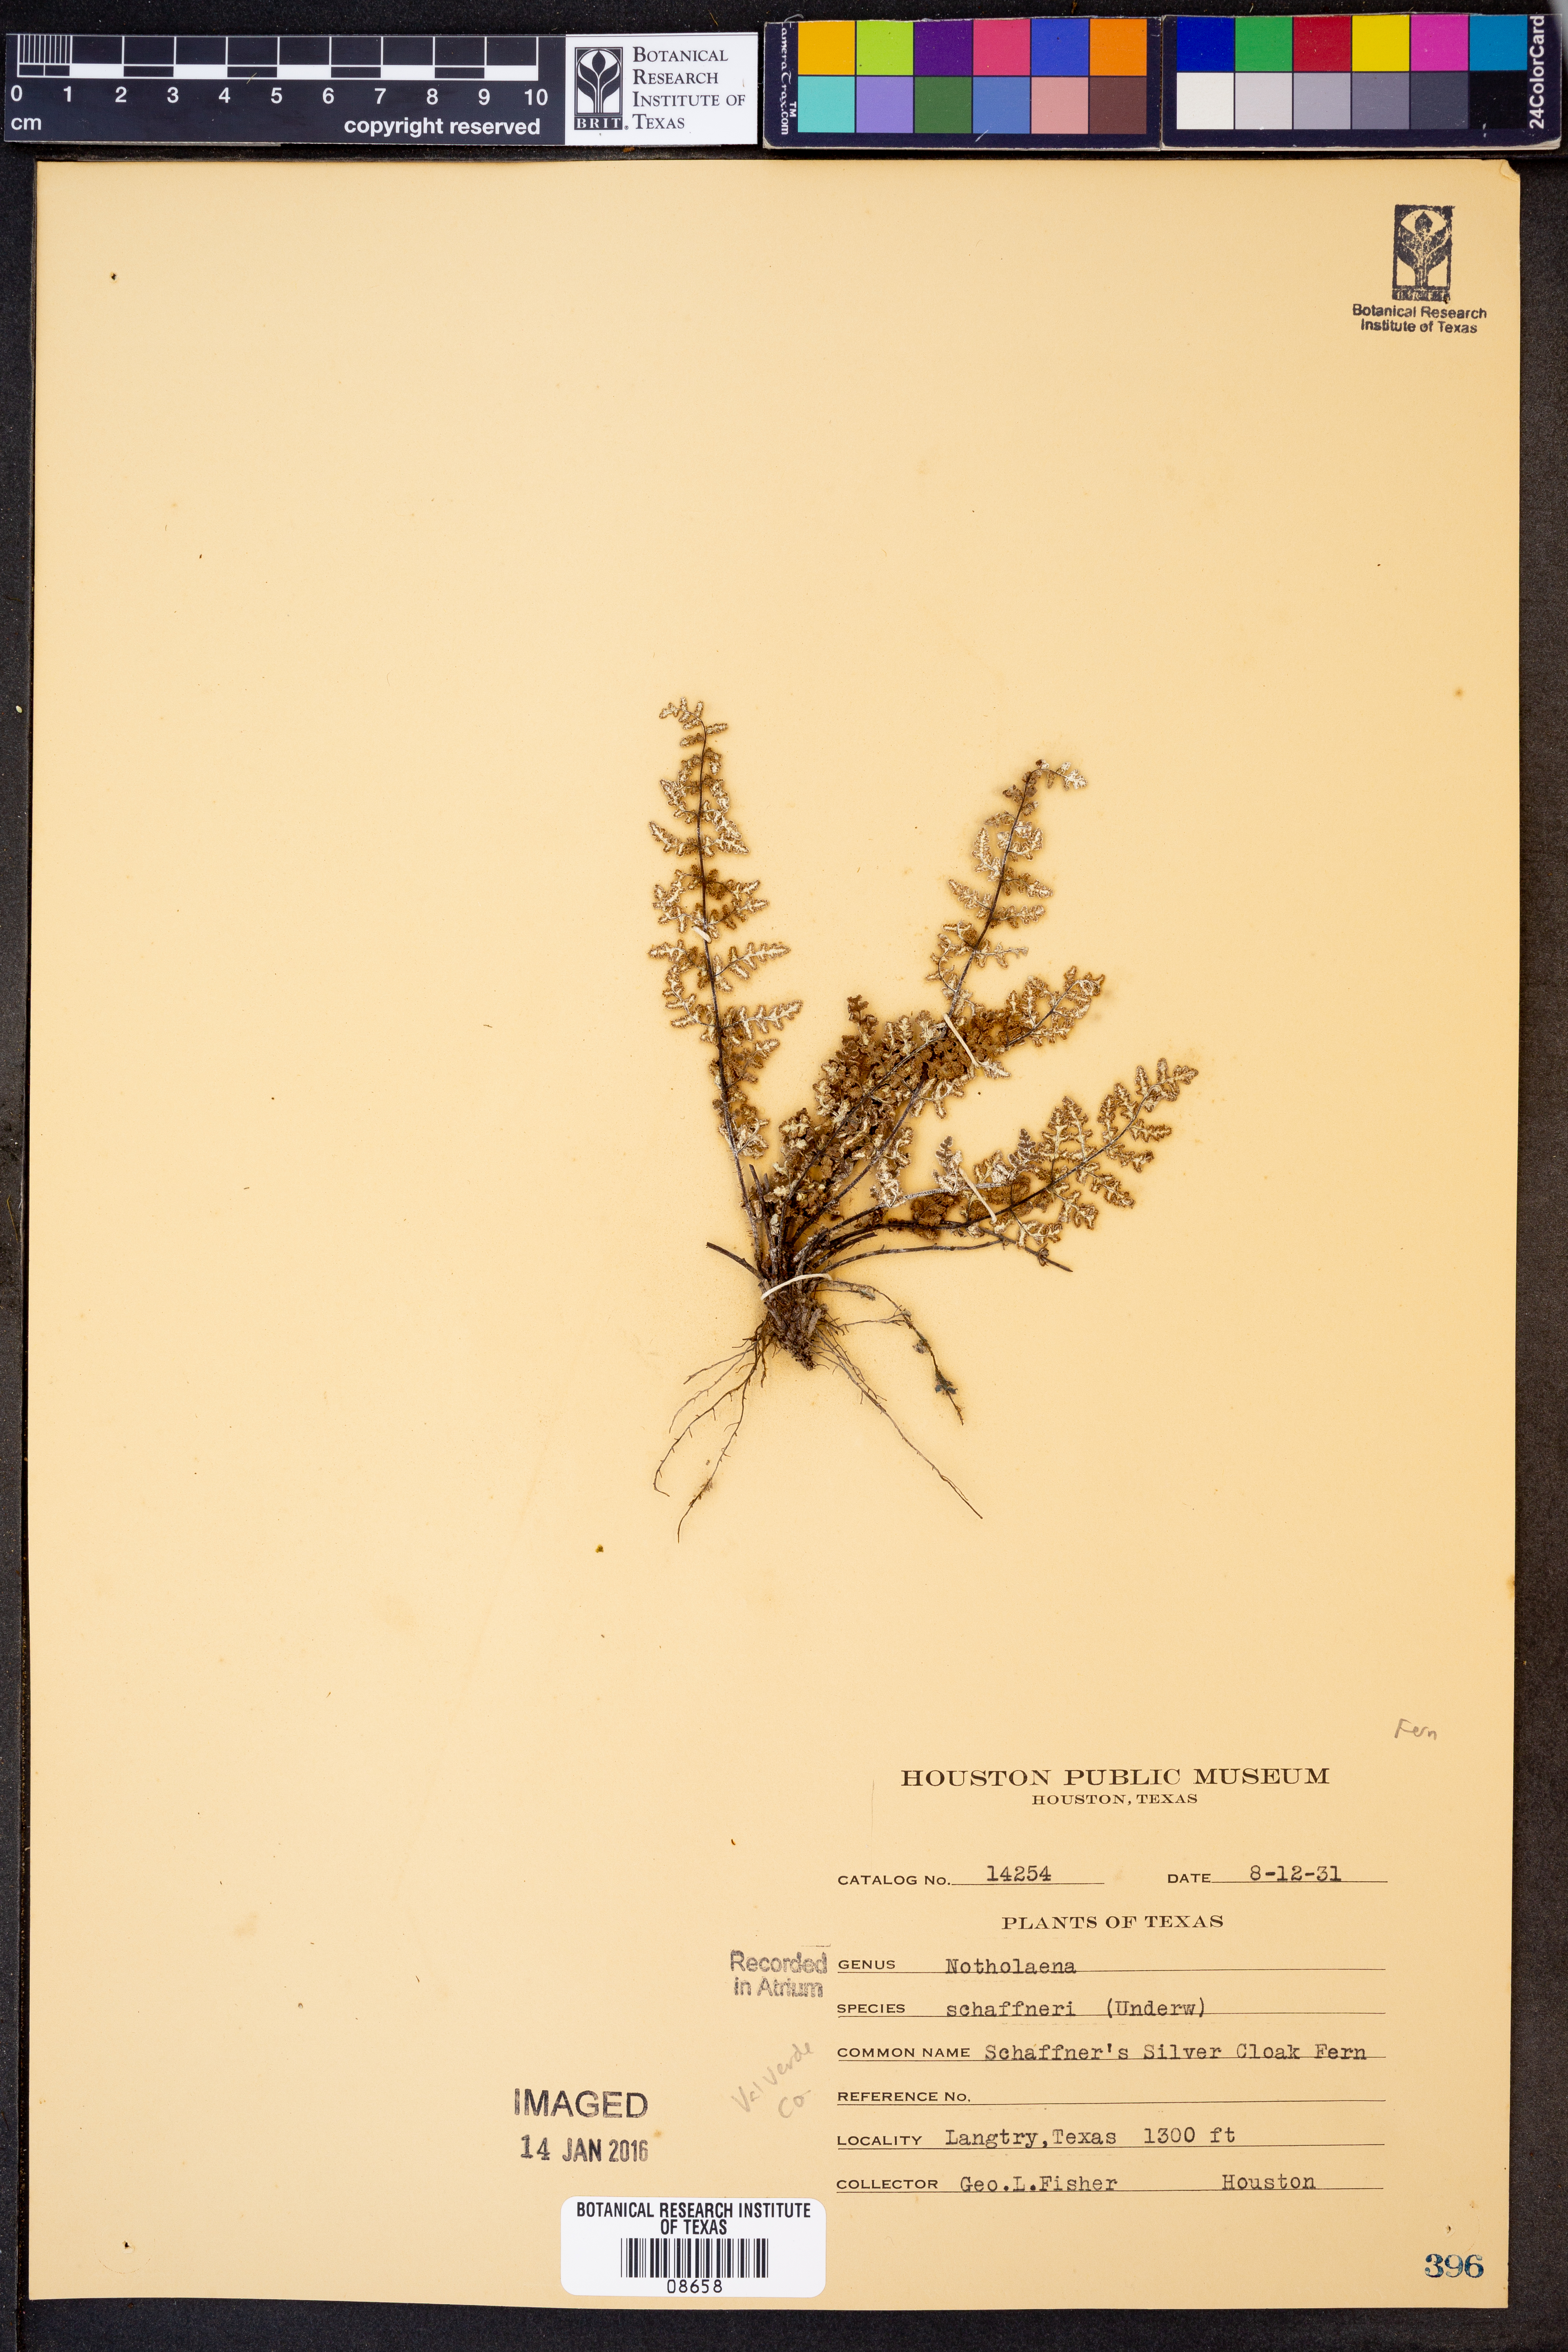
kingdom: Plantae
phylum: Tracheophyta
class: Polypodiopsida
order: Polypodiales
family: Pteridaceae
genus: Notholaena
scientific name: Notholaena schaffneri
